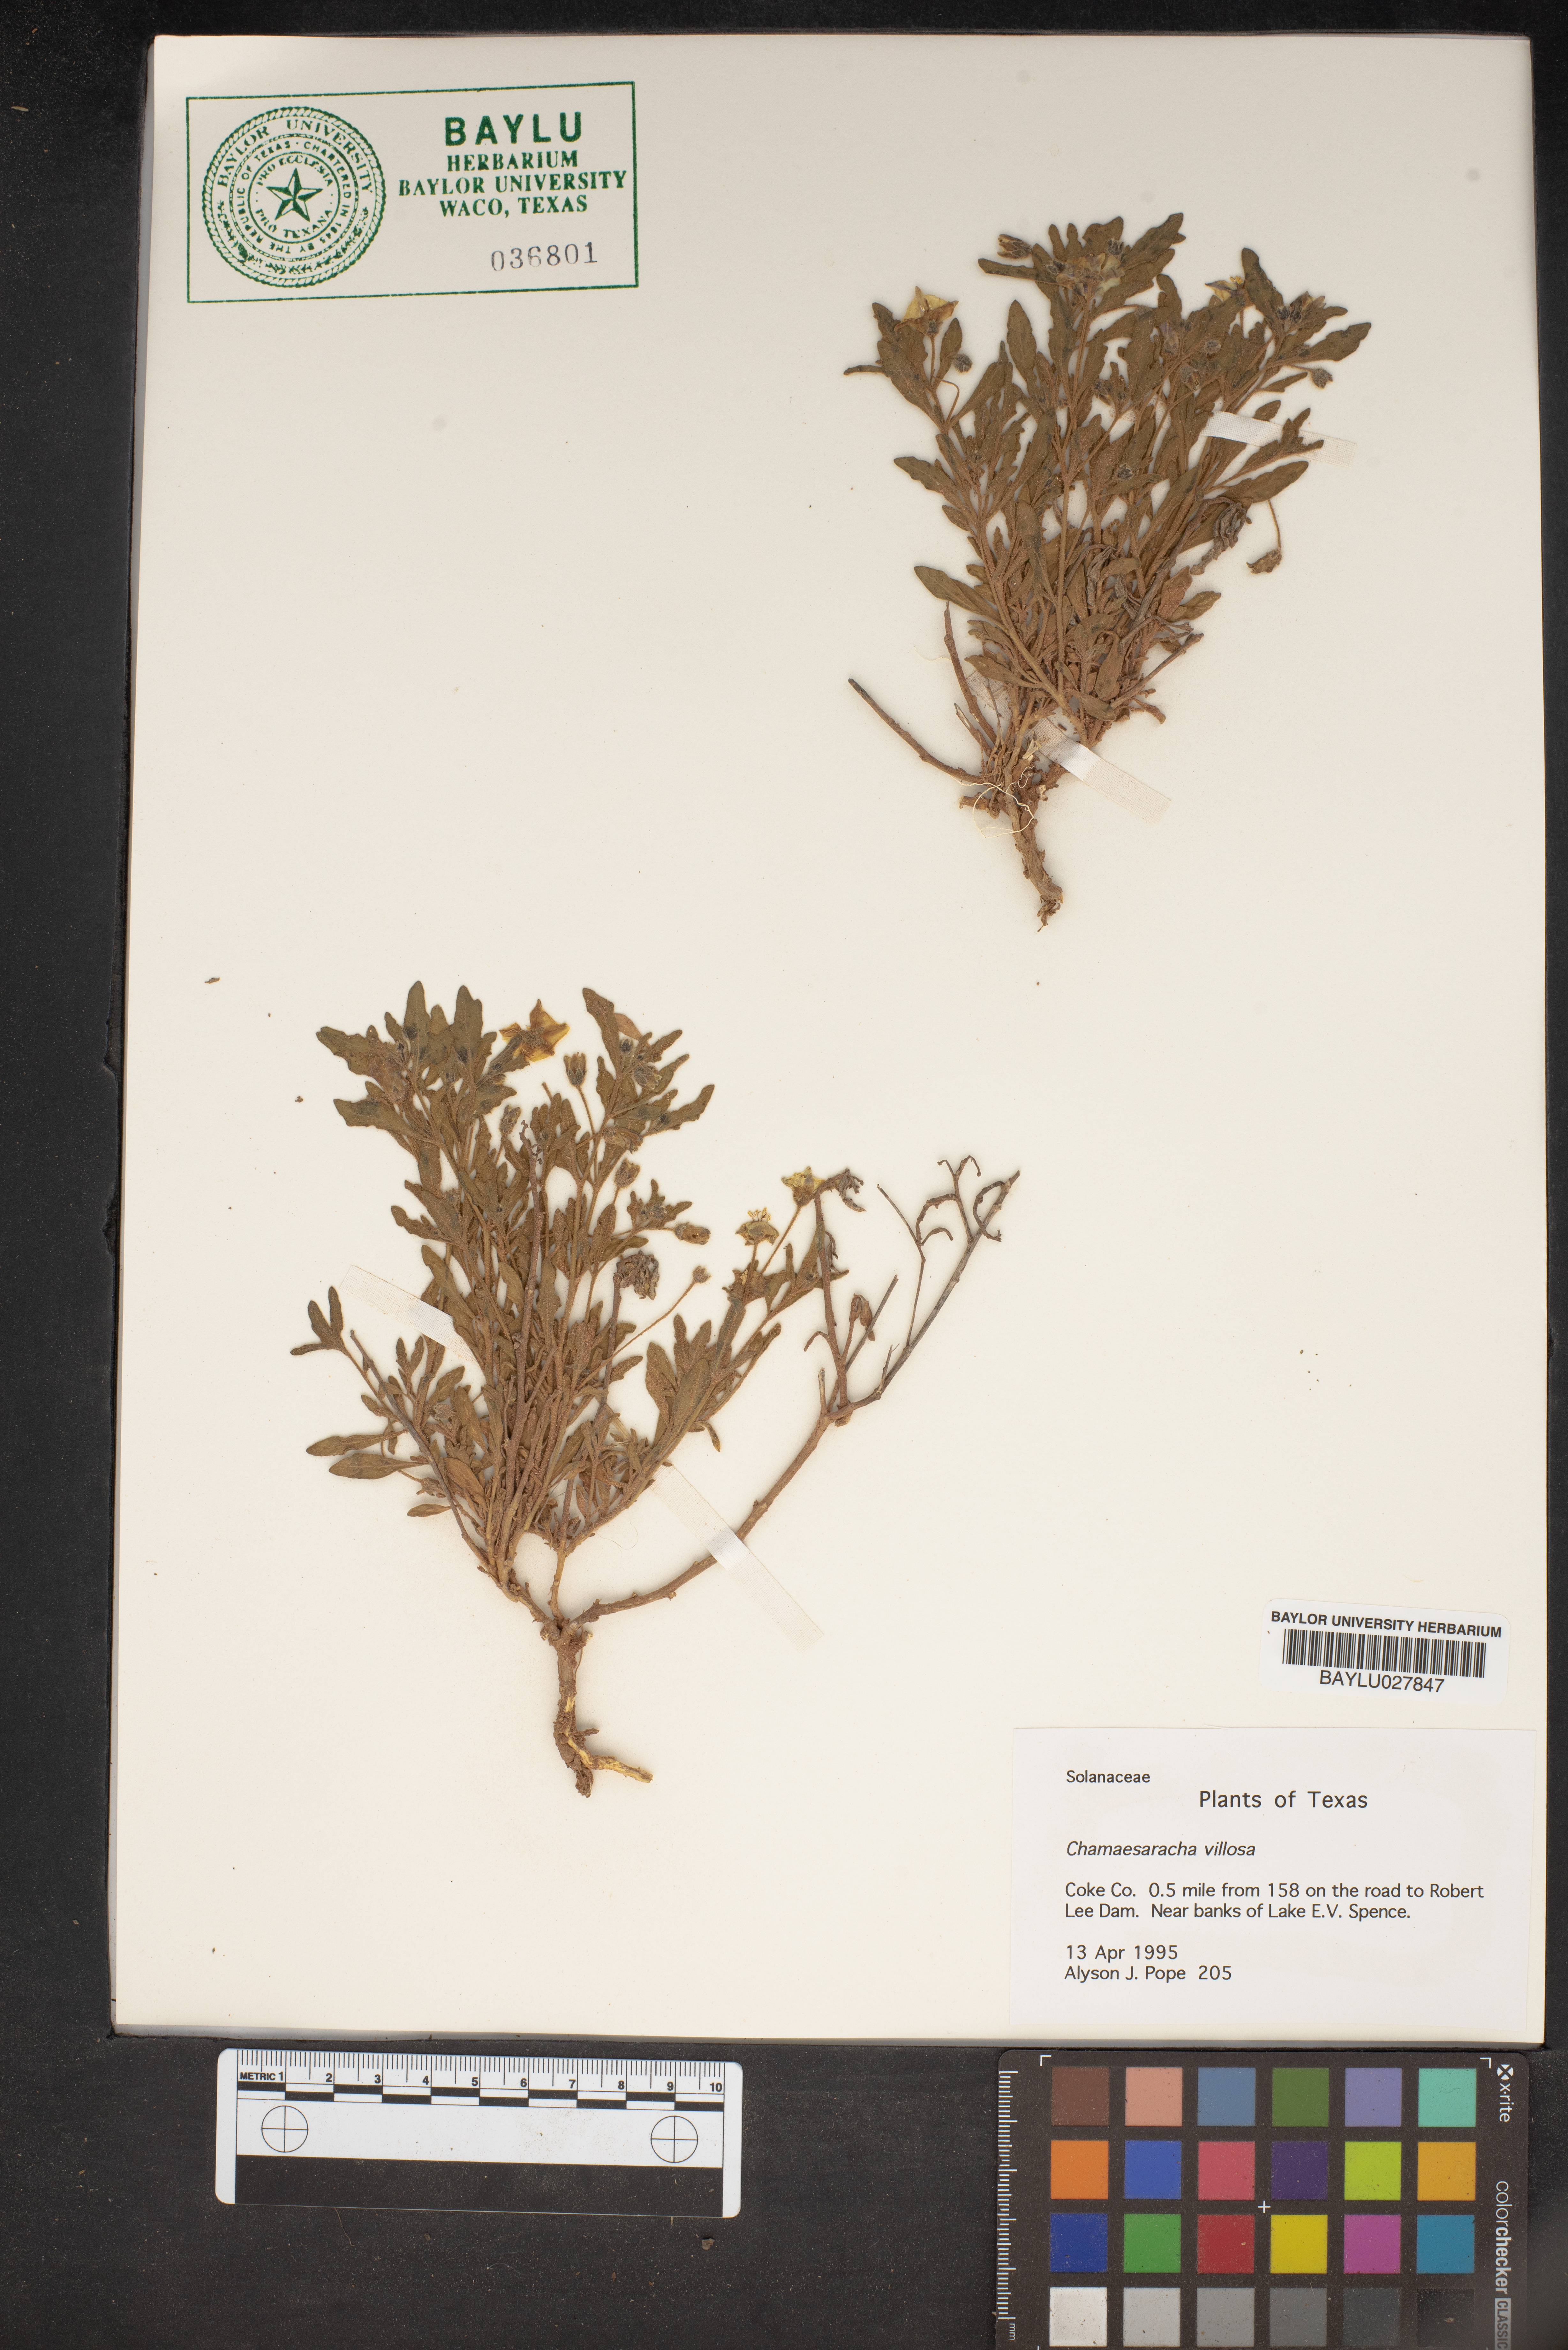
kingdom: Plantae
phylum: Tracheophyta
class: Magnoliopsida
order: Solanales
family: Solanaceae
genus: Chamaesaracha
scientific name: Chamaesaracha villosa
